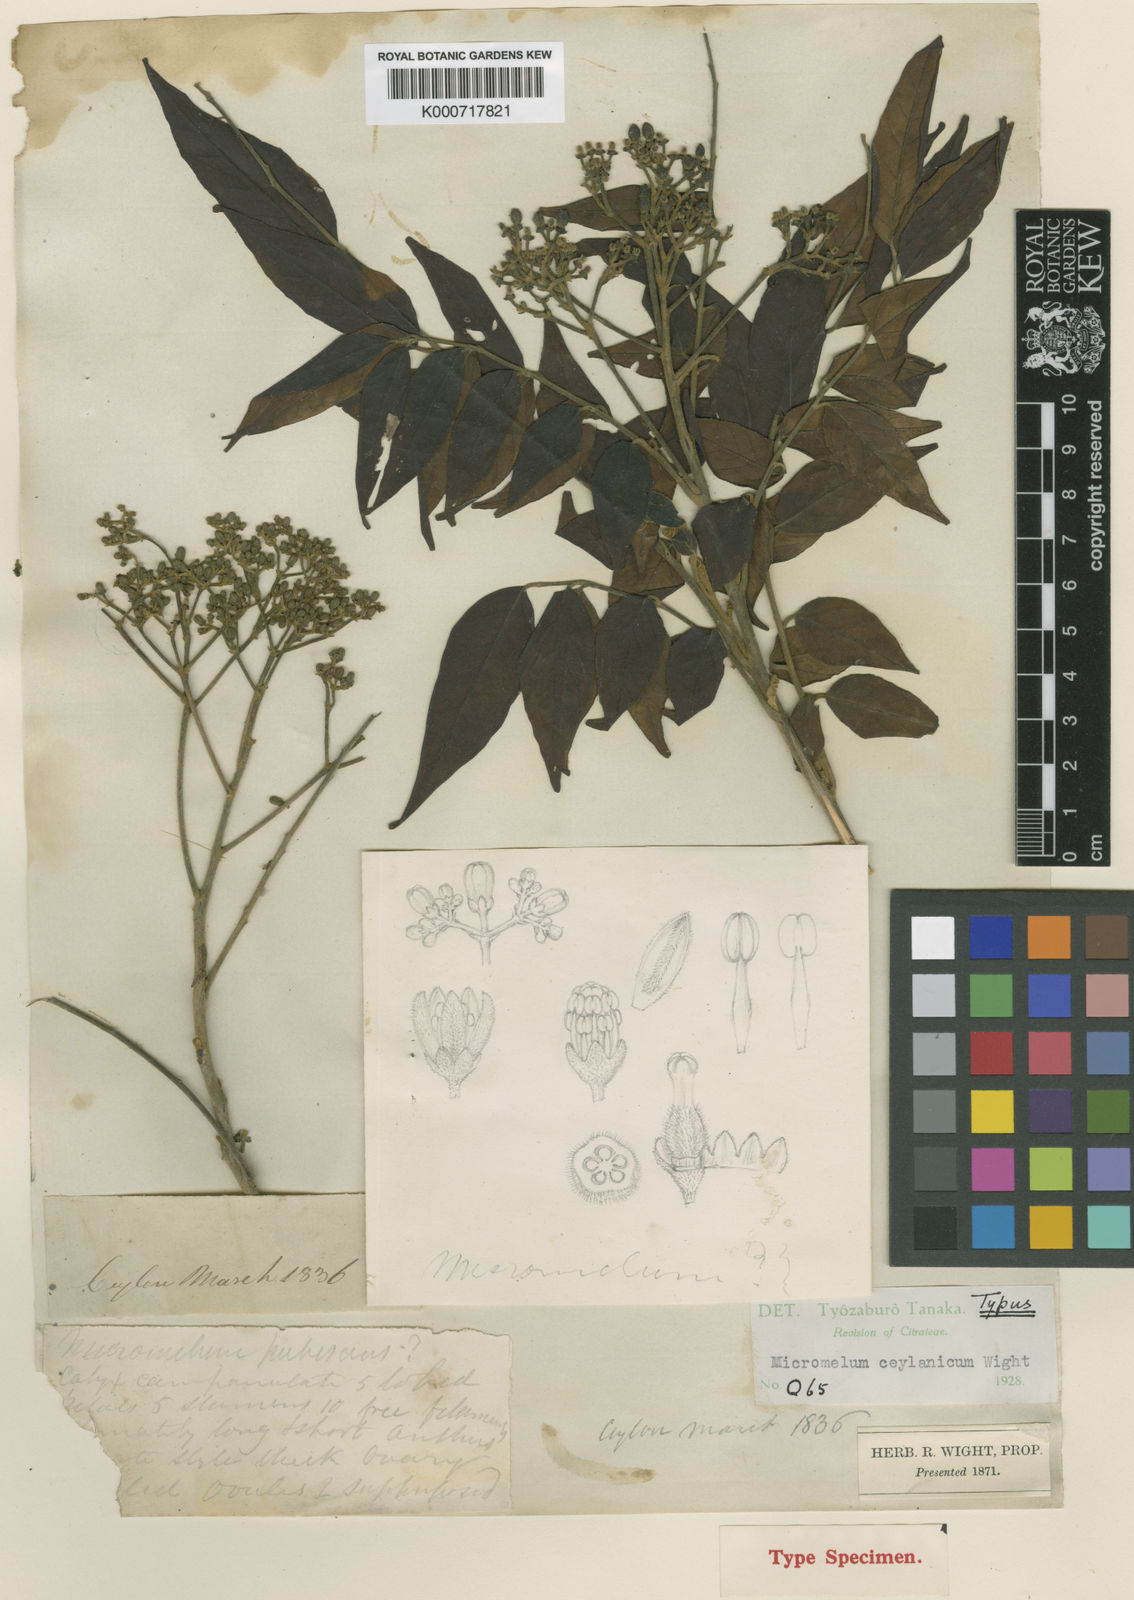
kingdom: Plantae
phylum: Tracheophyta
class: Magnoliopsida
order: Sapindales
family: Rutaceae
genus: Micromelum
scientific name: Micromelum minutum
